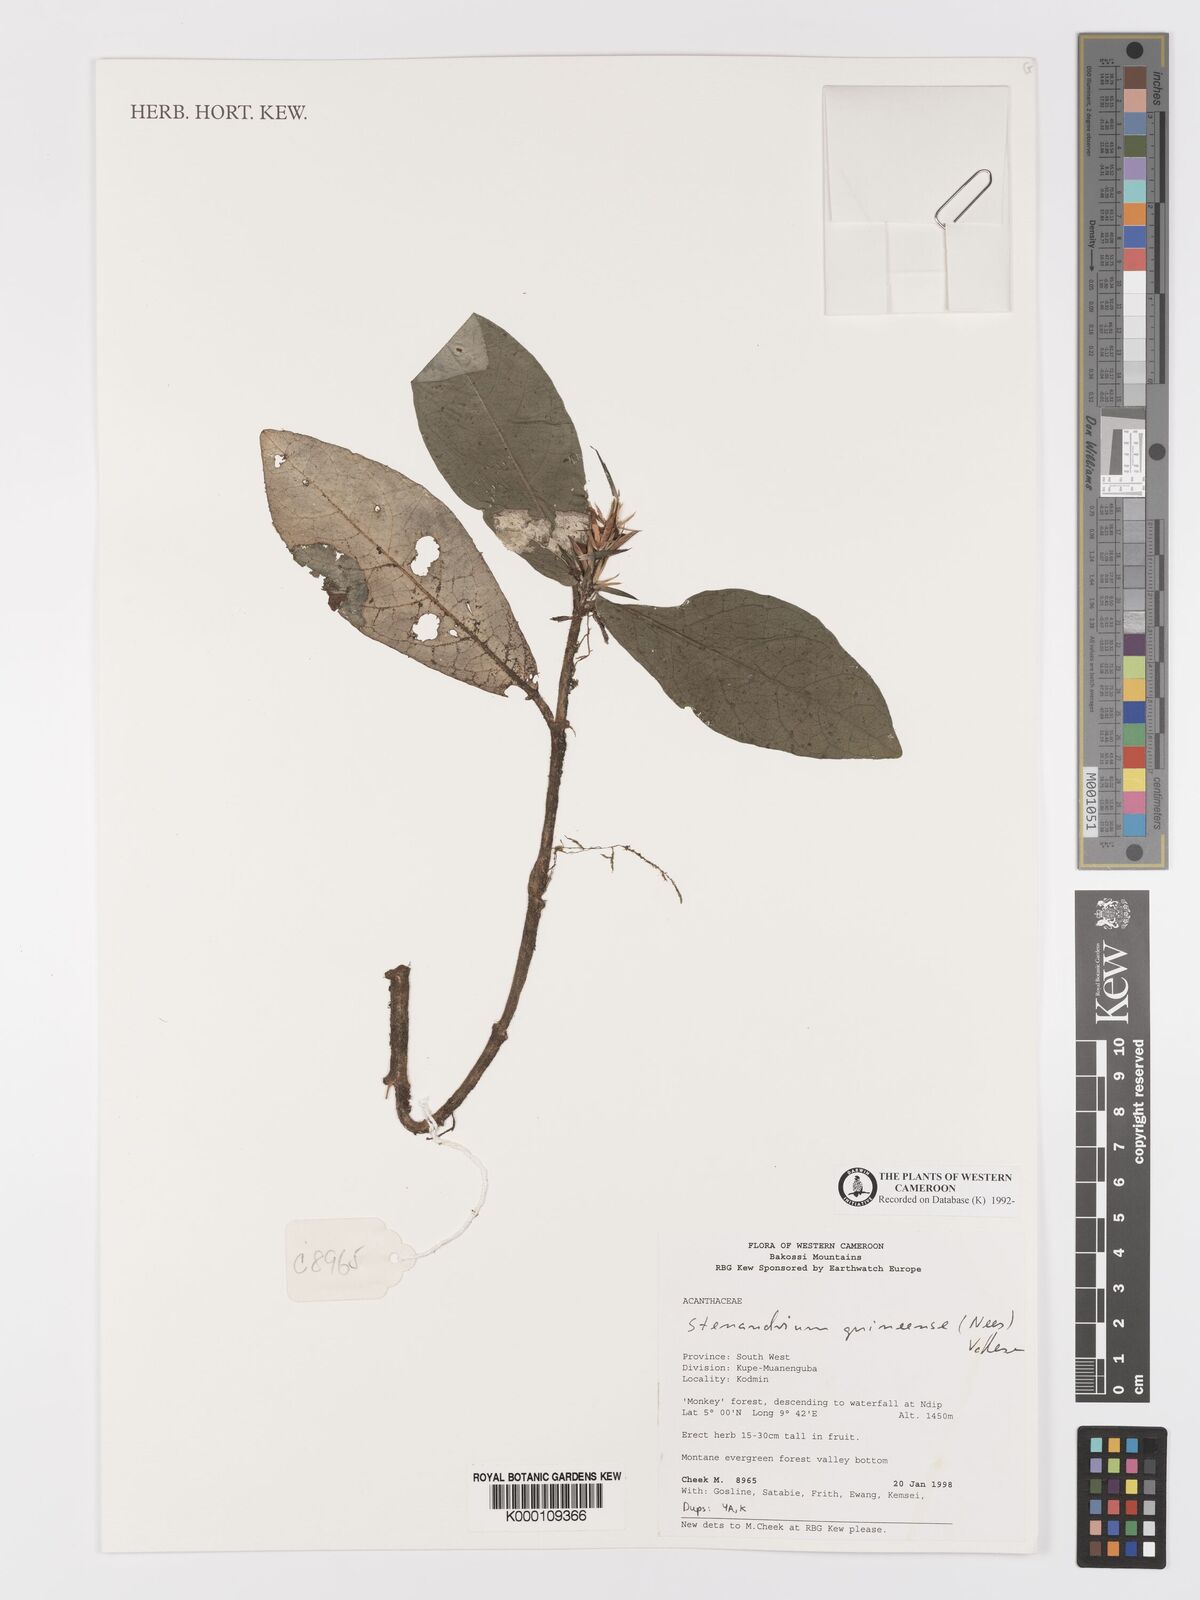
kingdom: Plantae
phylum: Tracheophyta
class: Magnoliopsida
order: Lamiales
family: Acanthaceae
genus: Stenandriopsis
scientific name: Stenandriopsis guineensis
